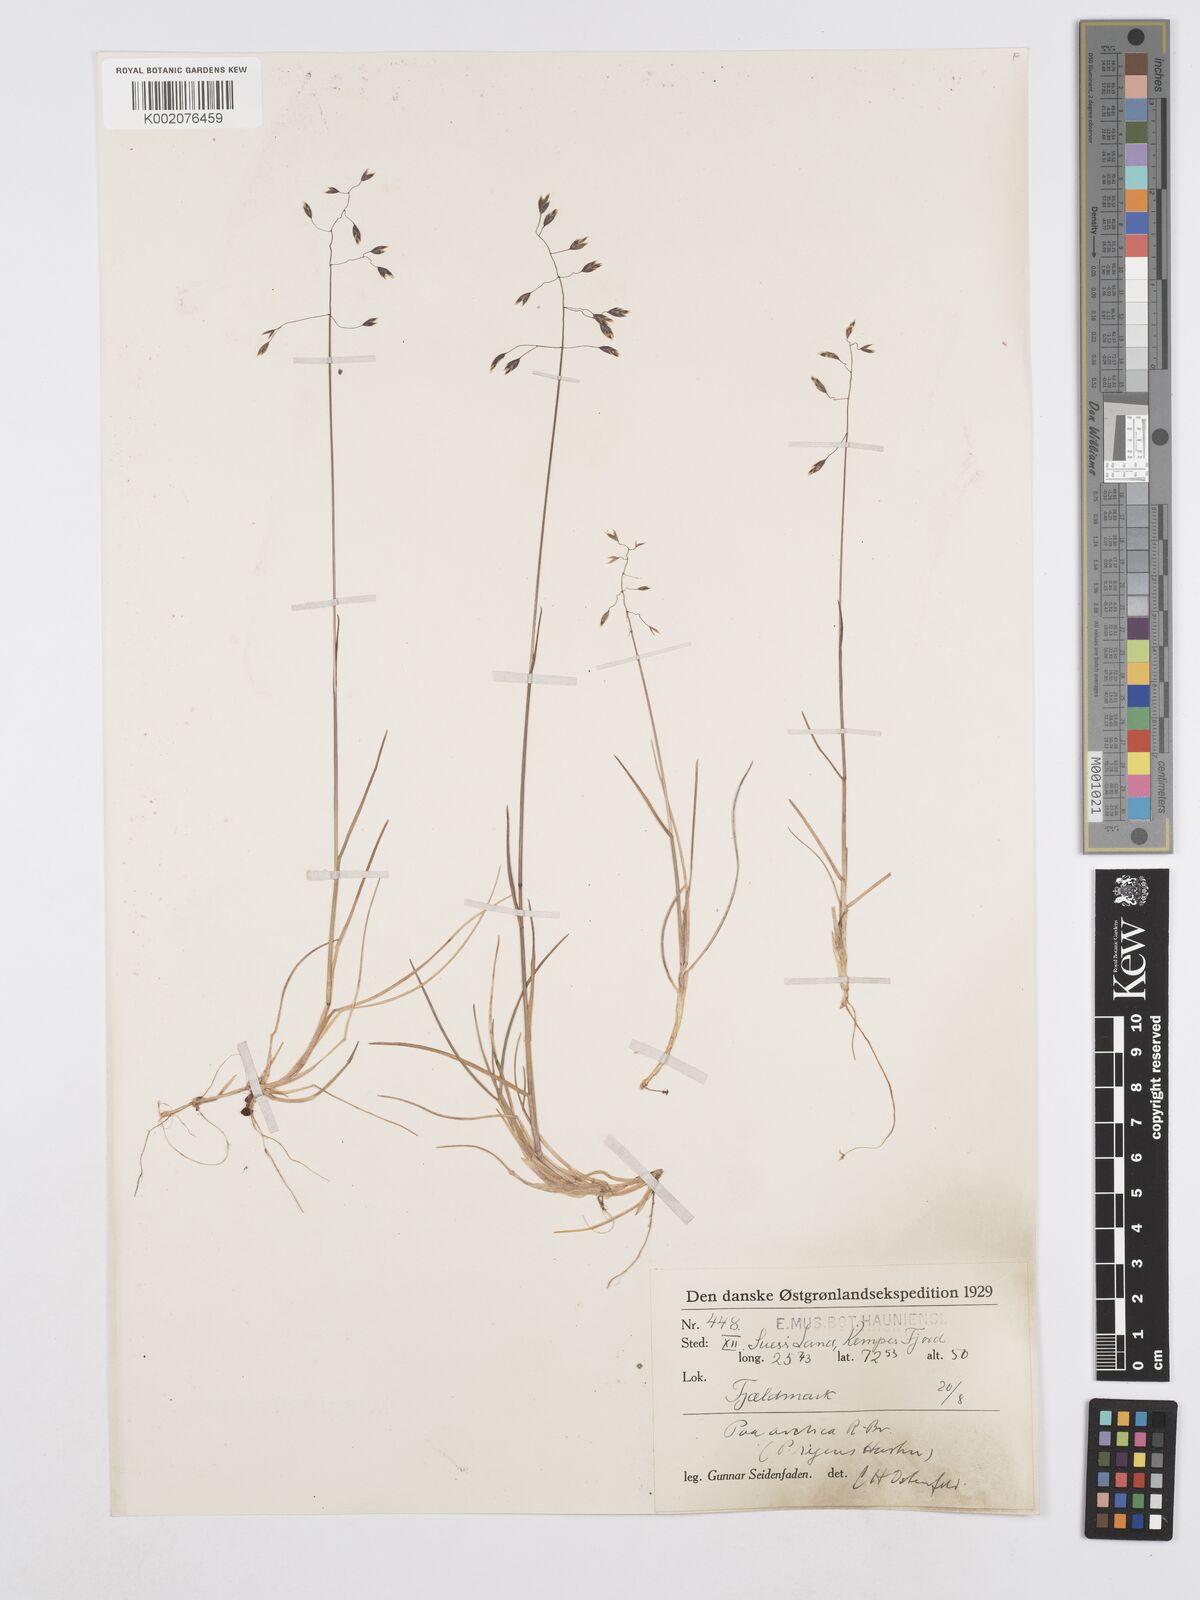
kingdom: Plantae
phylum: Tracheophyta
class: Liliopsida
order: Poales
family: Poaceae
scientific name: Poaceae
